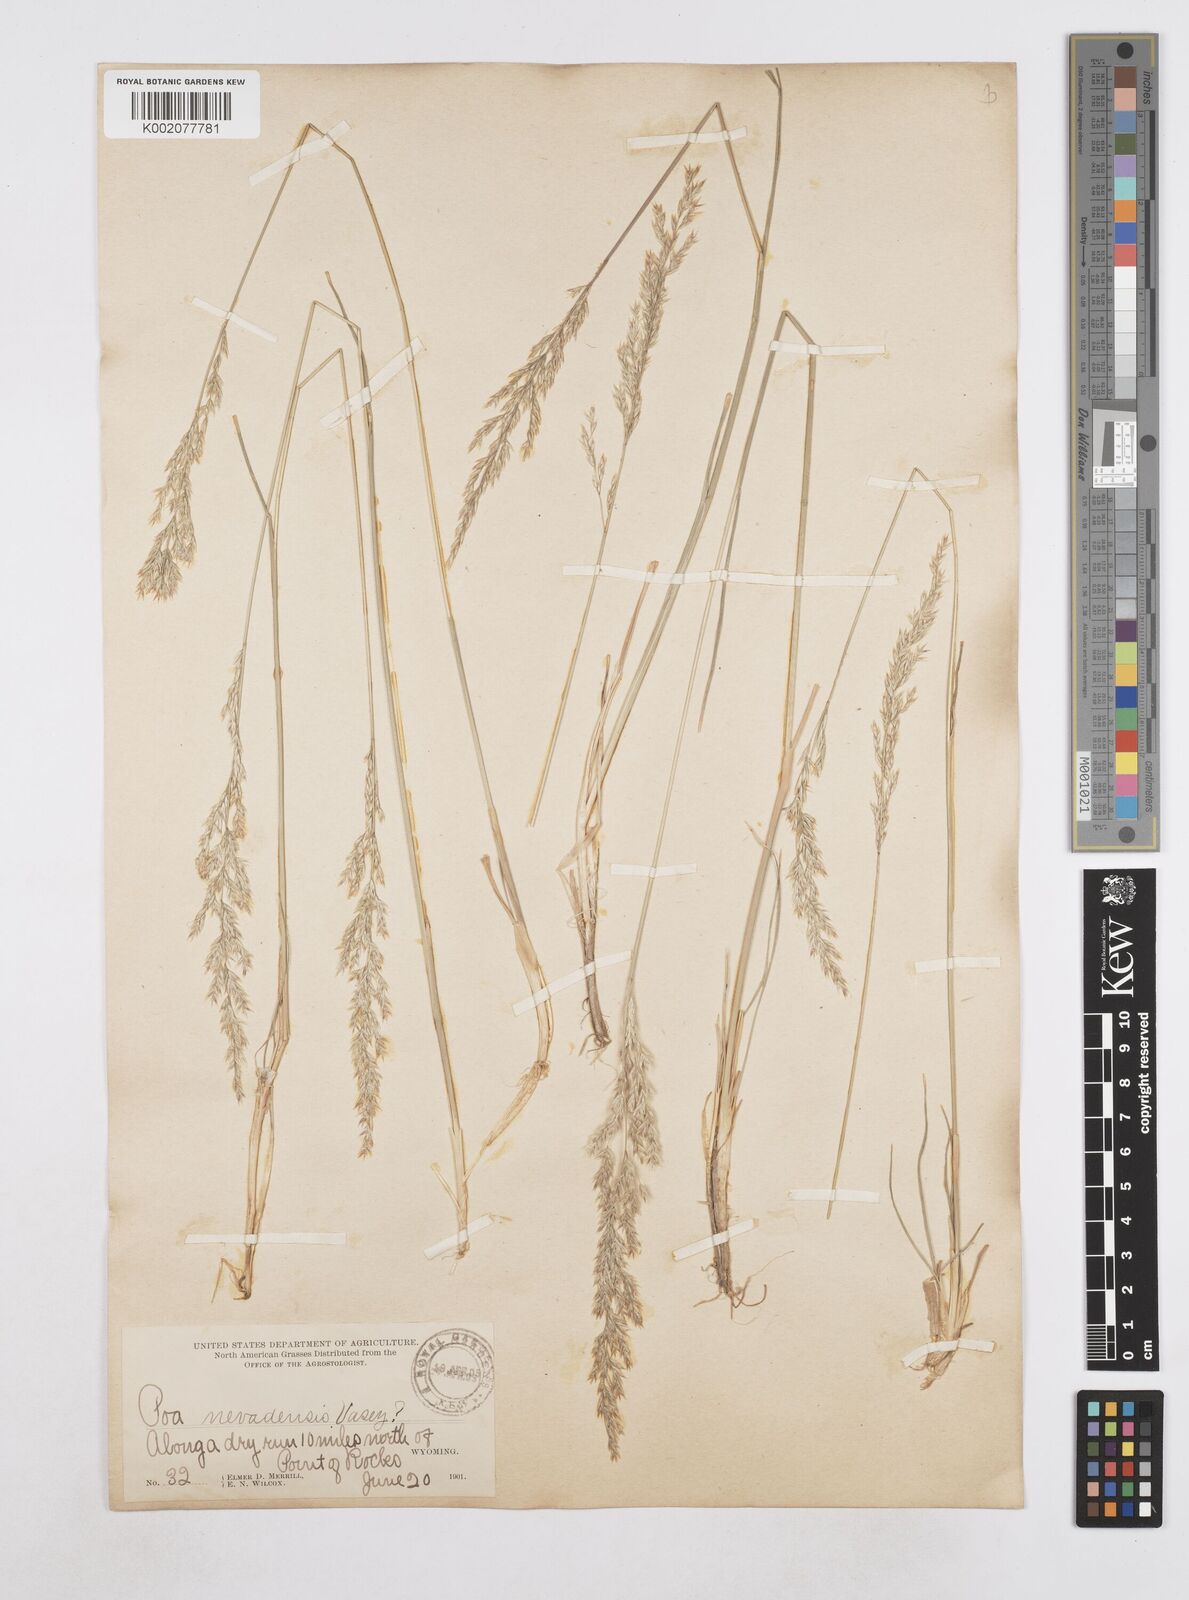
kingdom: Plantae
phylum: Tracheophyta
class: Liliopsida
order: Poales
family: Poaceae
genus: Poa
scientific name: Poa secunda
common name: Sandberg bluegrass
